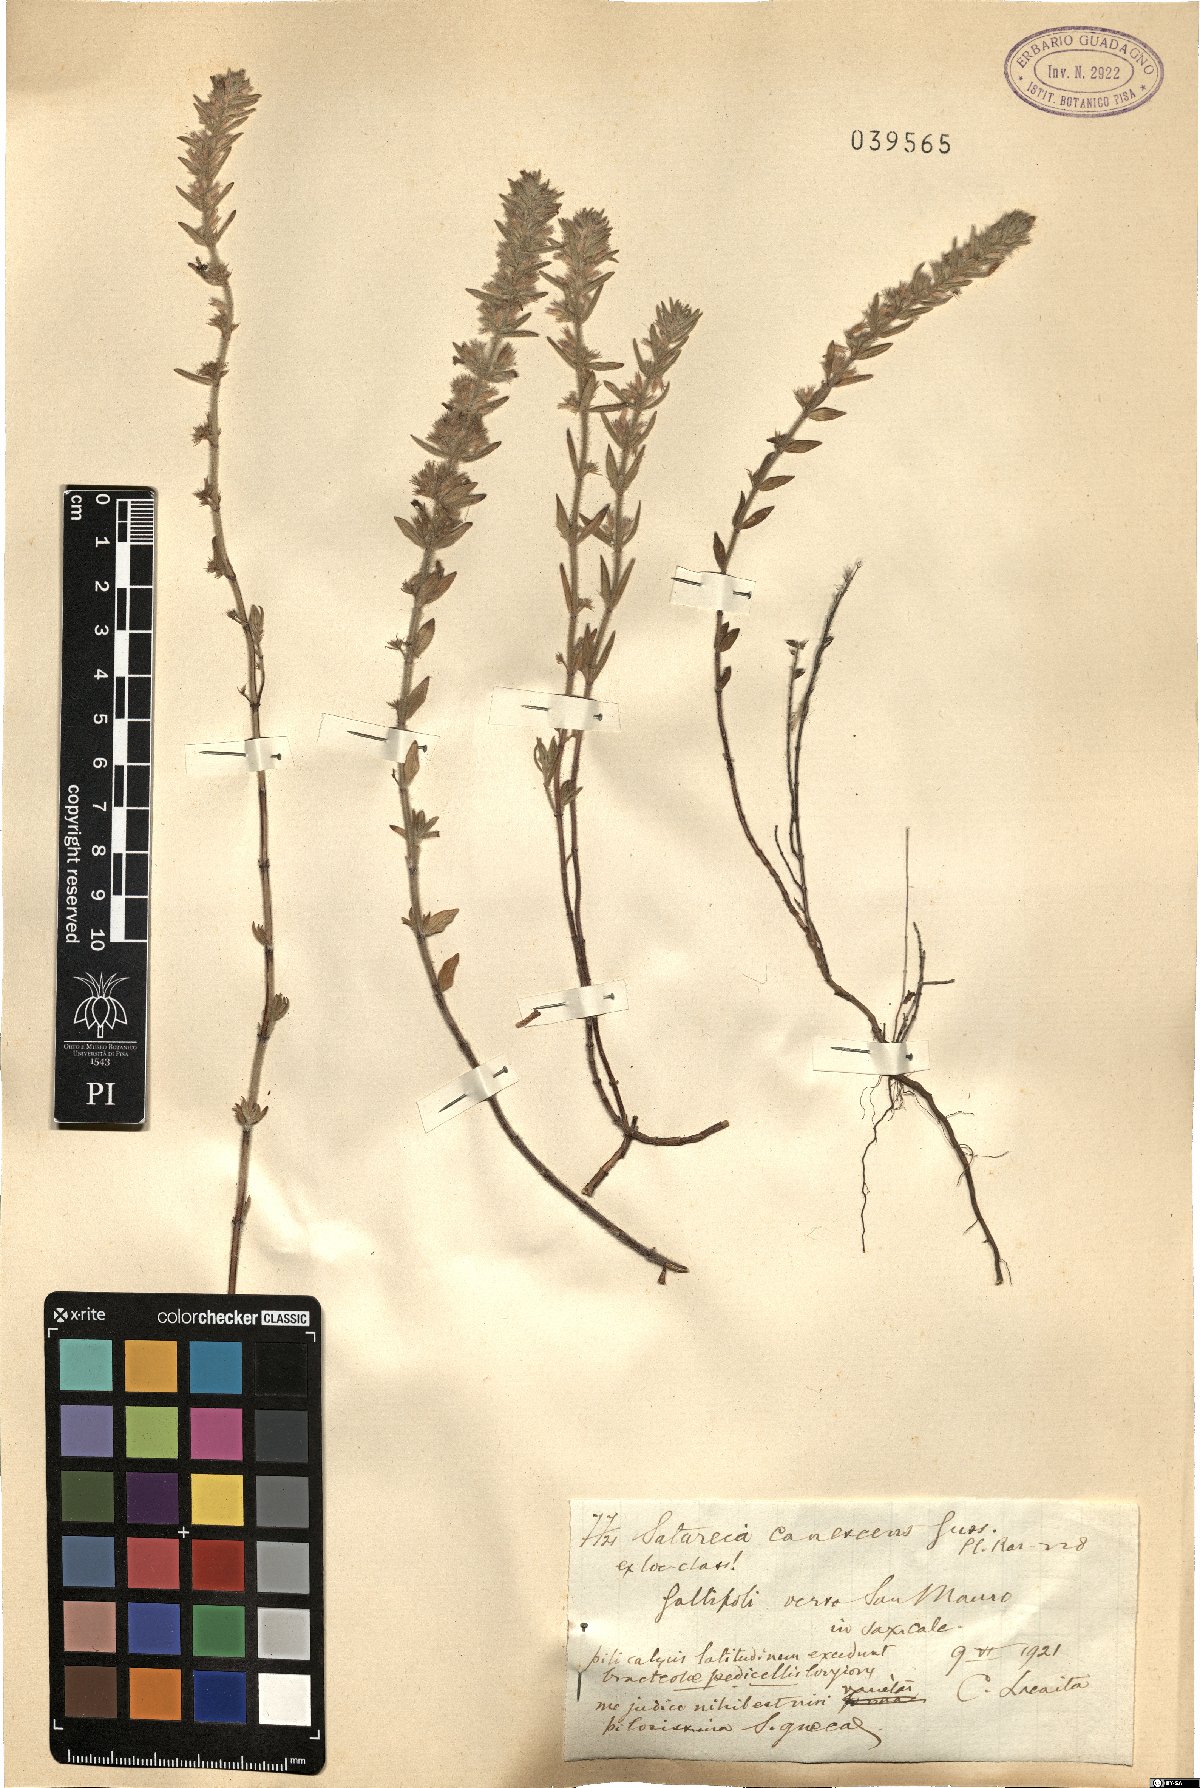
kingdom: Plantae
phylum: Tracheophyta
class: Magnoliopsida
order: Lamiales
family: Lamiaceae
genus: Micromeria
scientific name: Micromeria graeca
